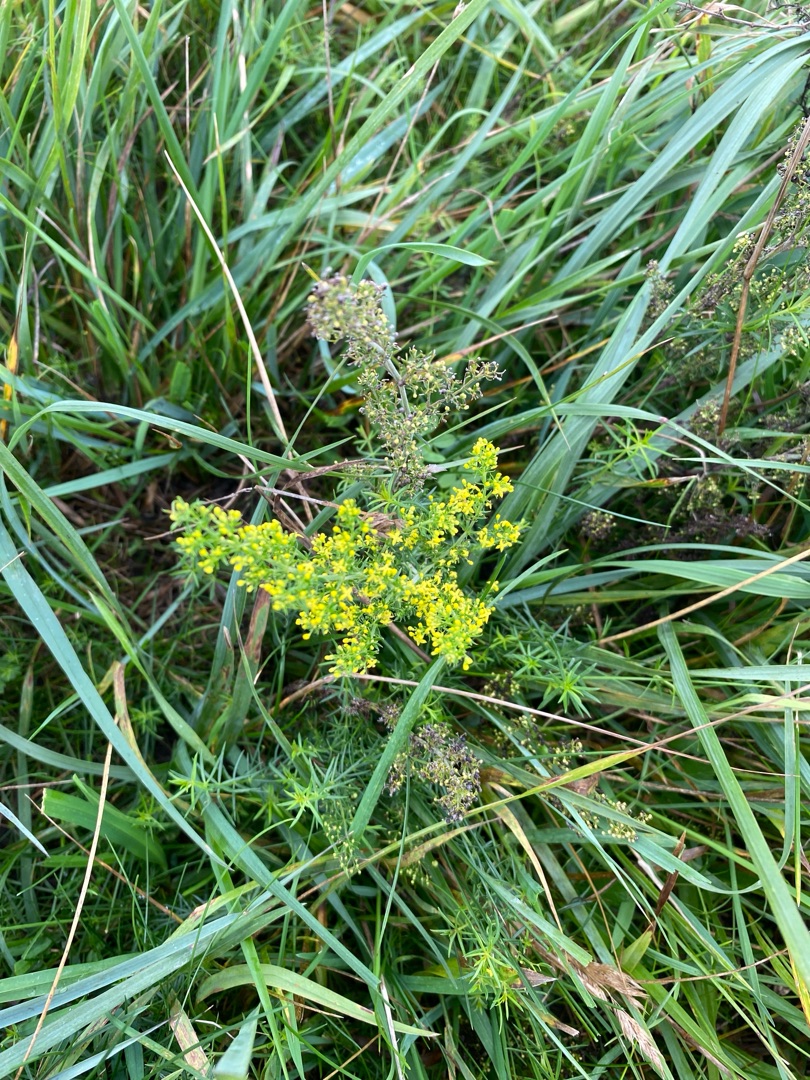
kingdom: Plantae
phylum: Tracheophyta
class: Magnoliopsida
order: Gentianales
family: Rubiaceae
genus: Galium
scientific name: Galium verum
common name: Gul snerre
